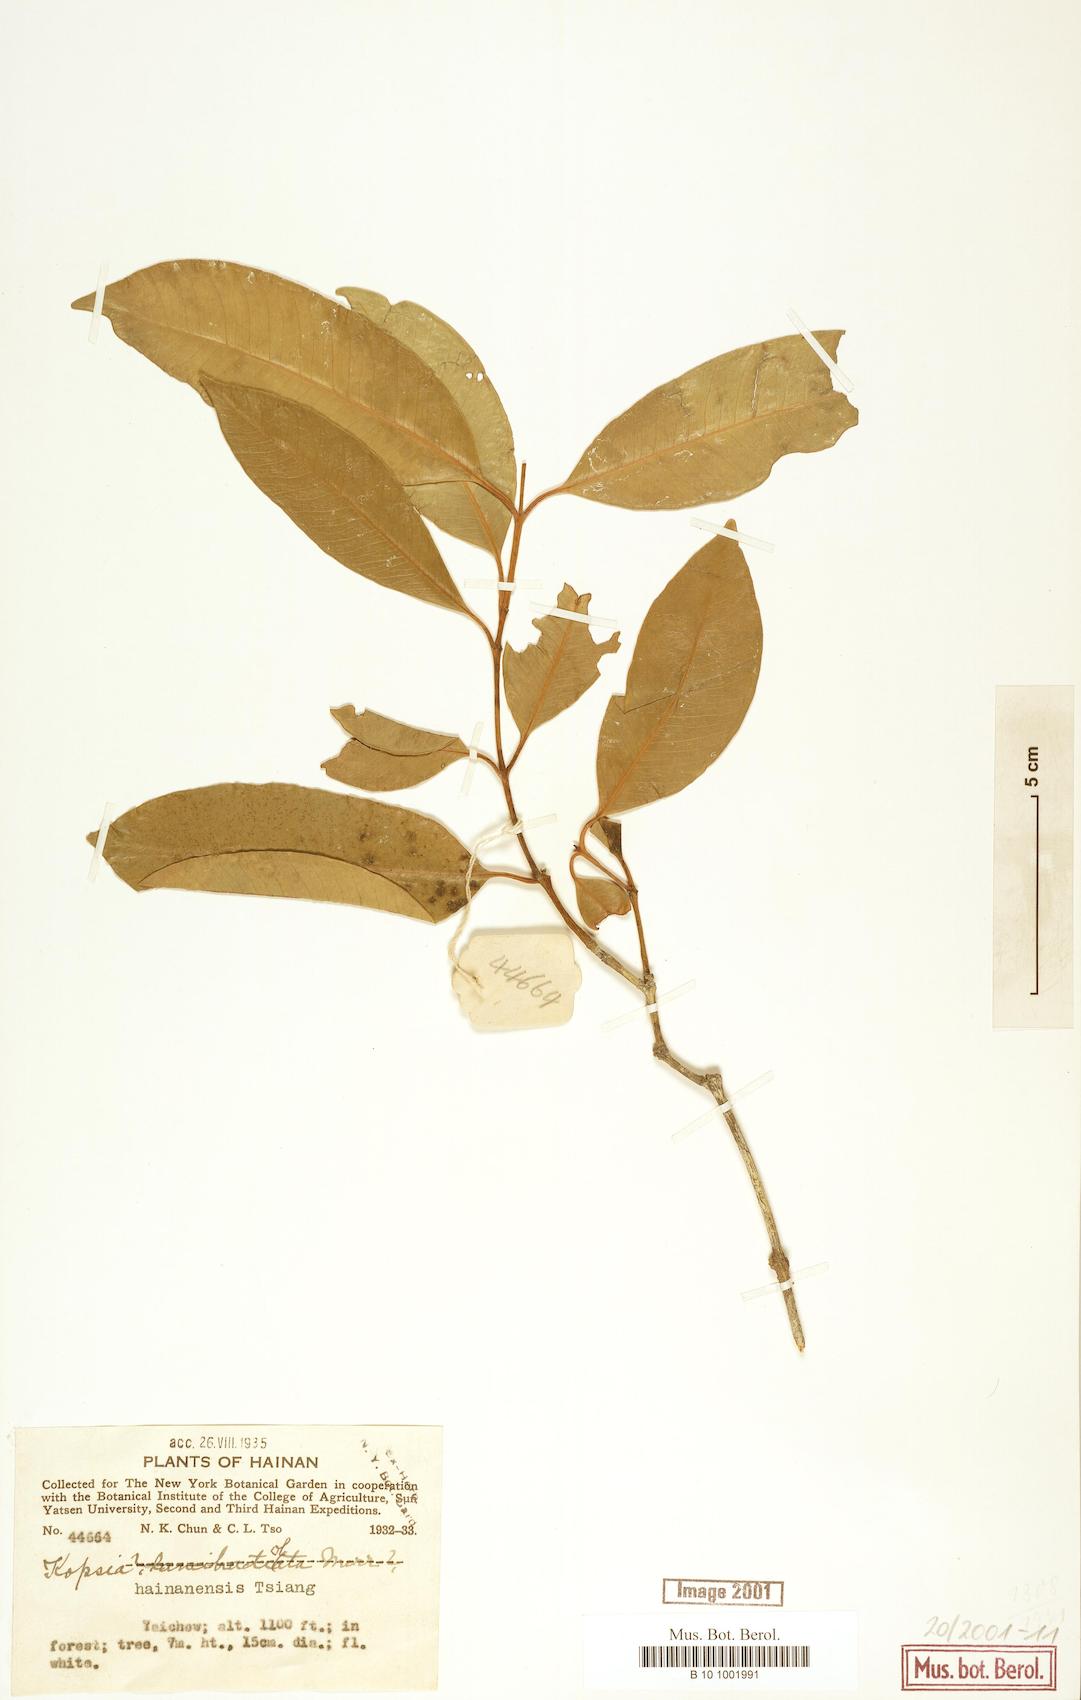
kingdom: Plantae
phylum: Tracheophyta
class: Magnoliopsida
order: Gentianales
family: Apocynaceae
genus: Kopsia
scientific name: Kopsia hainanensis
